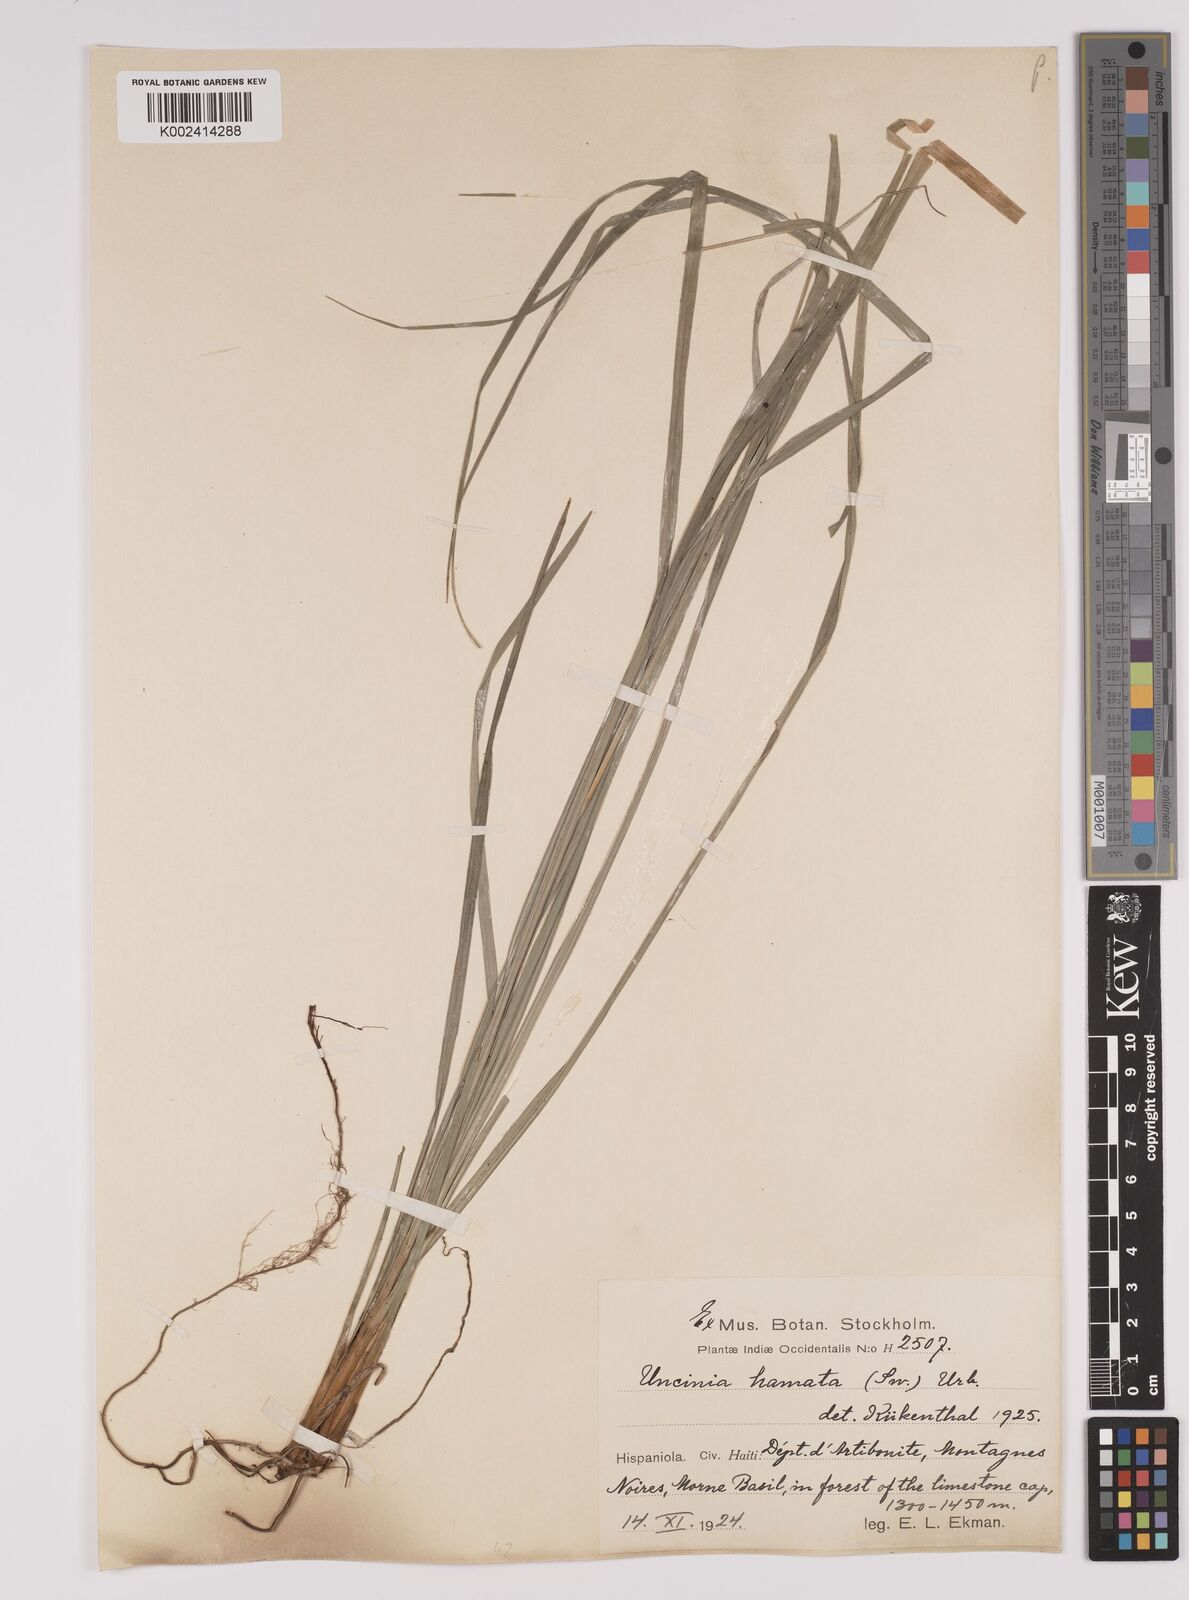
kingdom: Plantae
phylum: Tracheophyta
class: Liliopsida
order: Poales
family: Cyperaceae
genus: Carex
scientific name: Carex hamata
